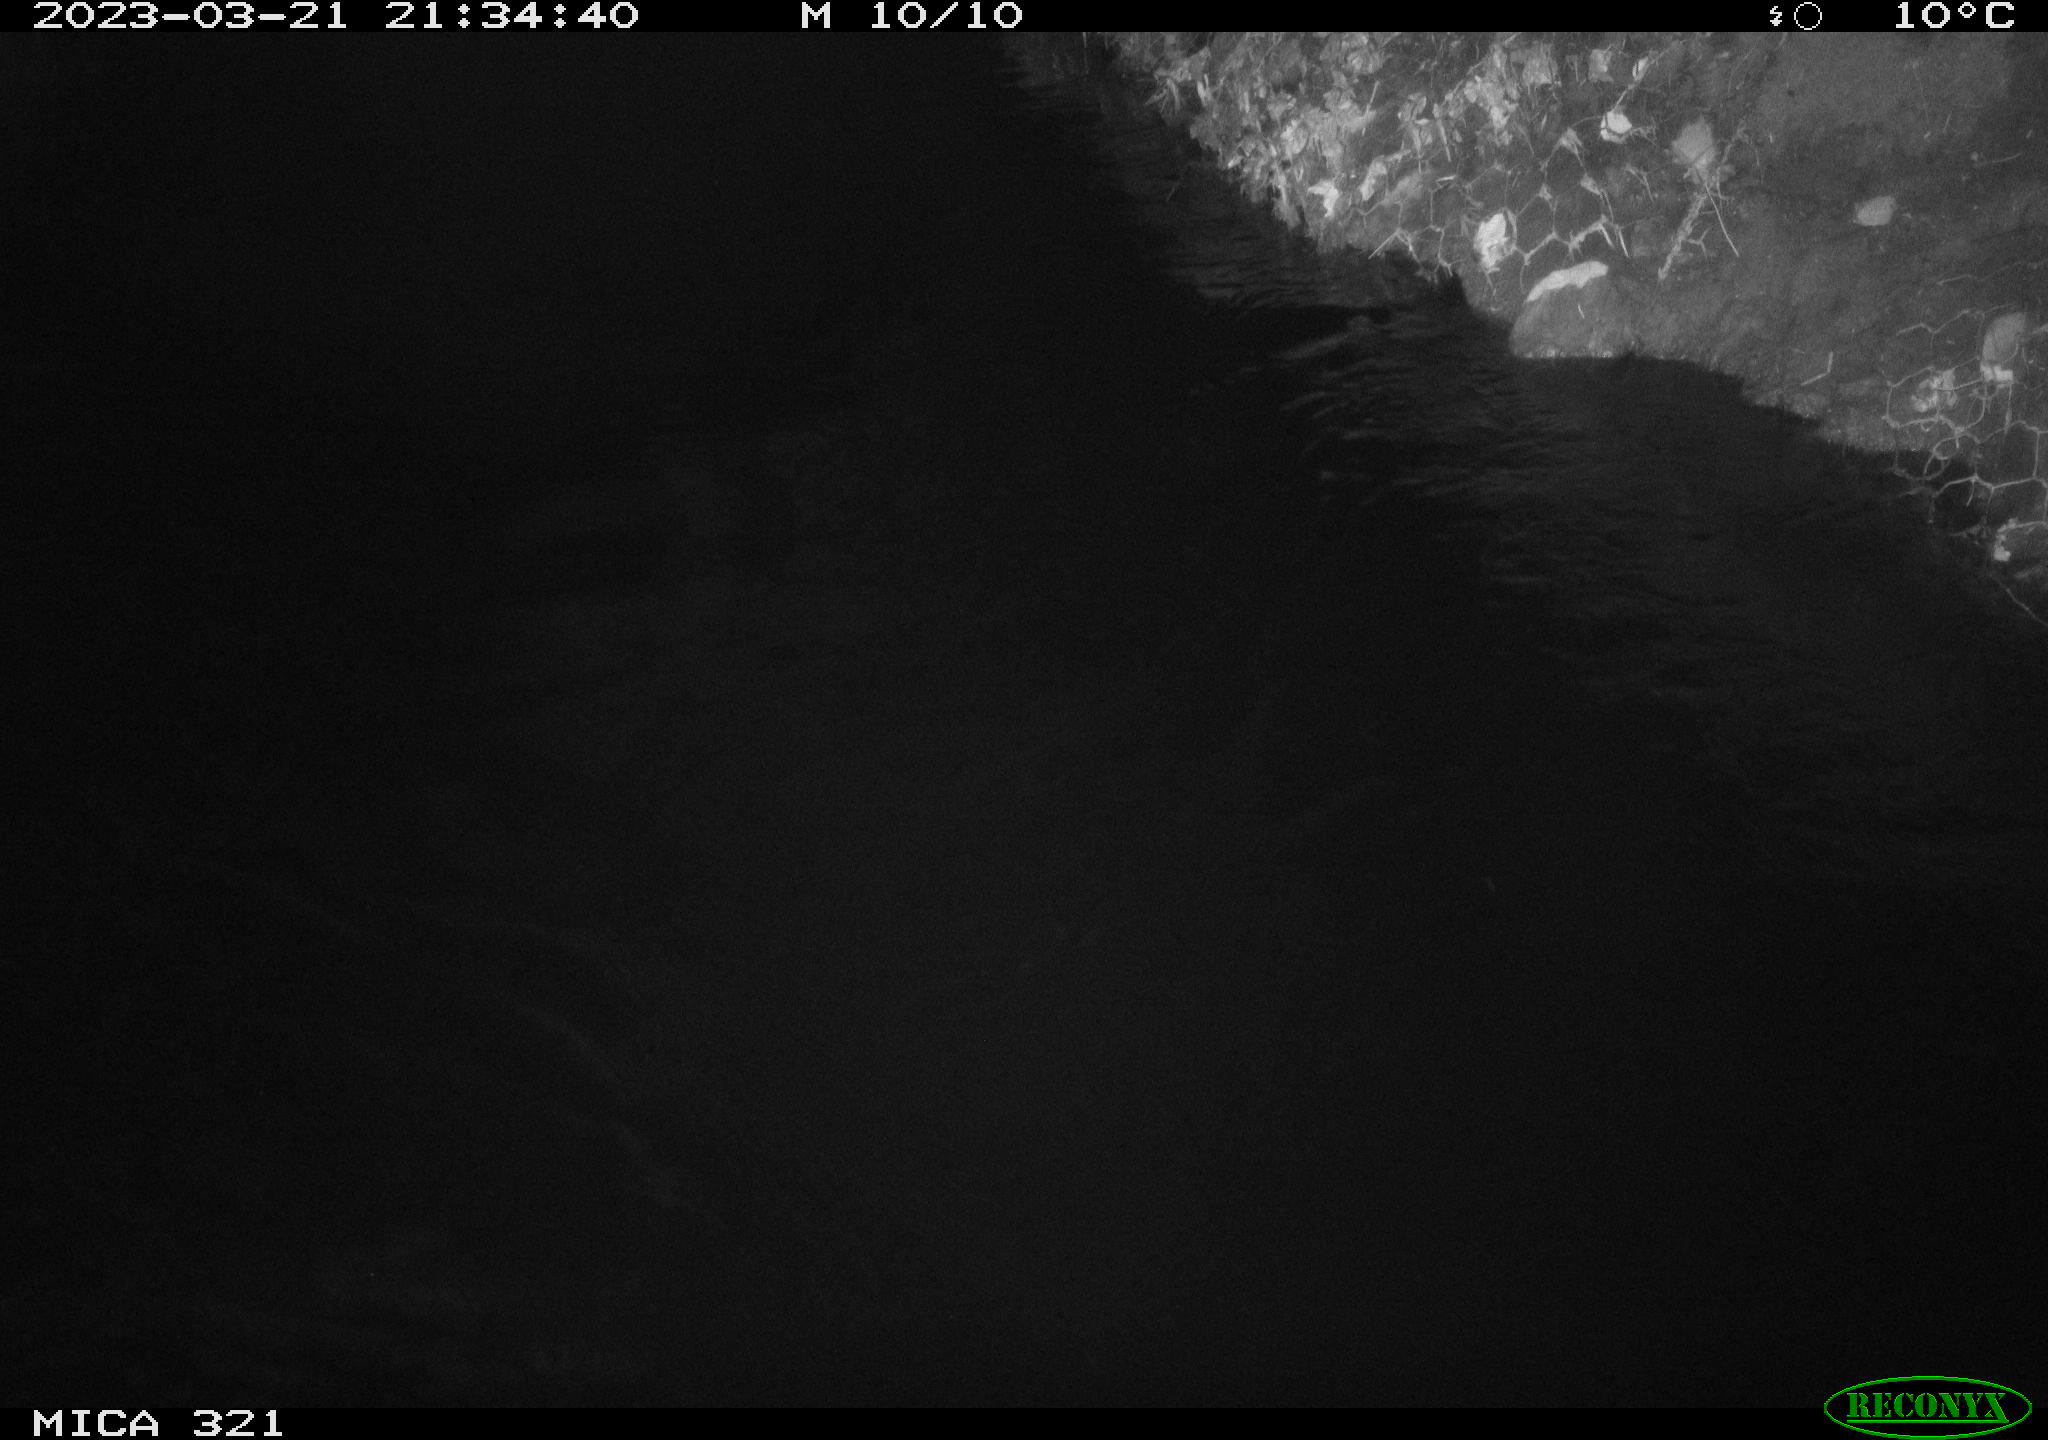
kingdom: Animalia
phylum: Chordata
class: Aves
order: Anseriformes
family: Anatidae
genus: Anas
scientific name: Anas
